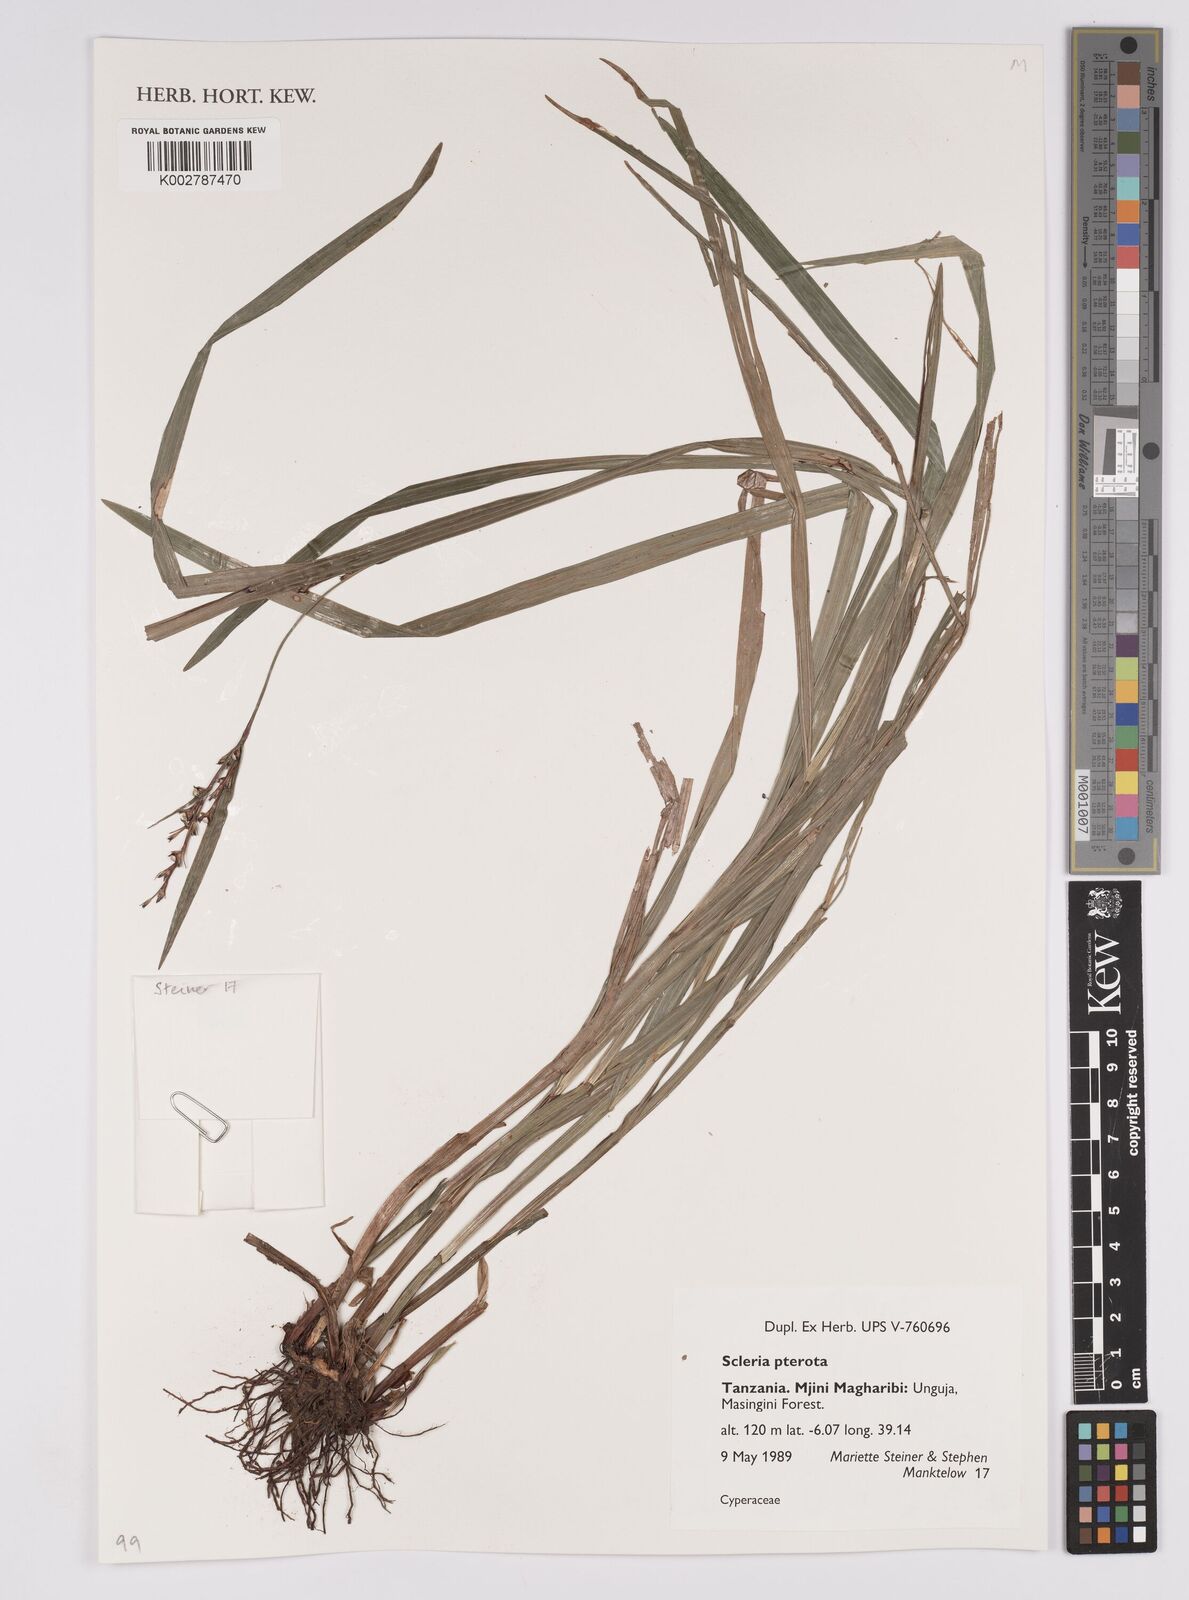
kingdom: Plantae
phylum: Tracheophyta
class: Liliopsida
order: Poales
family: Cyperaceae
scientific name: Cyperaceae
